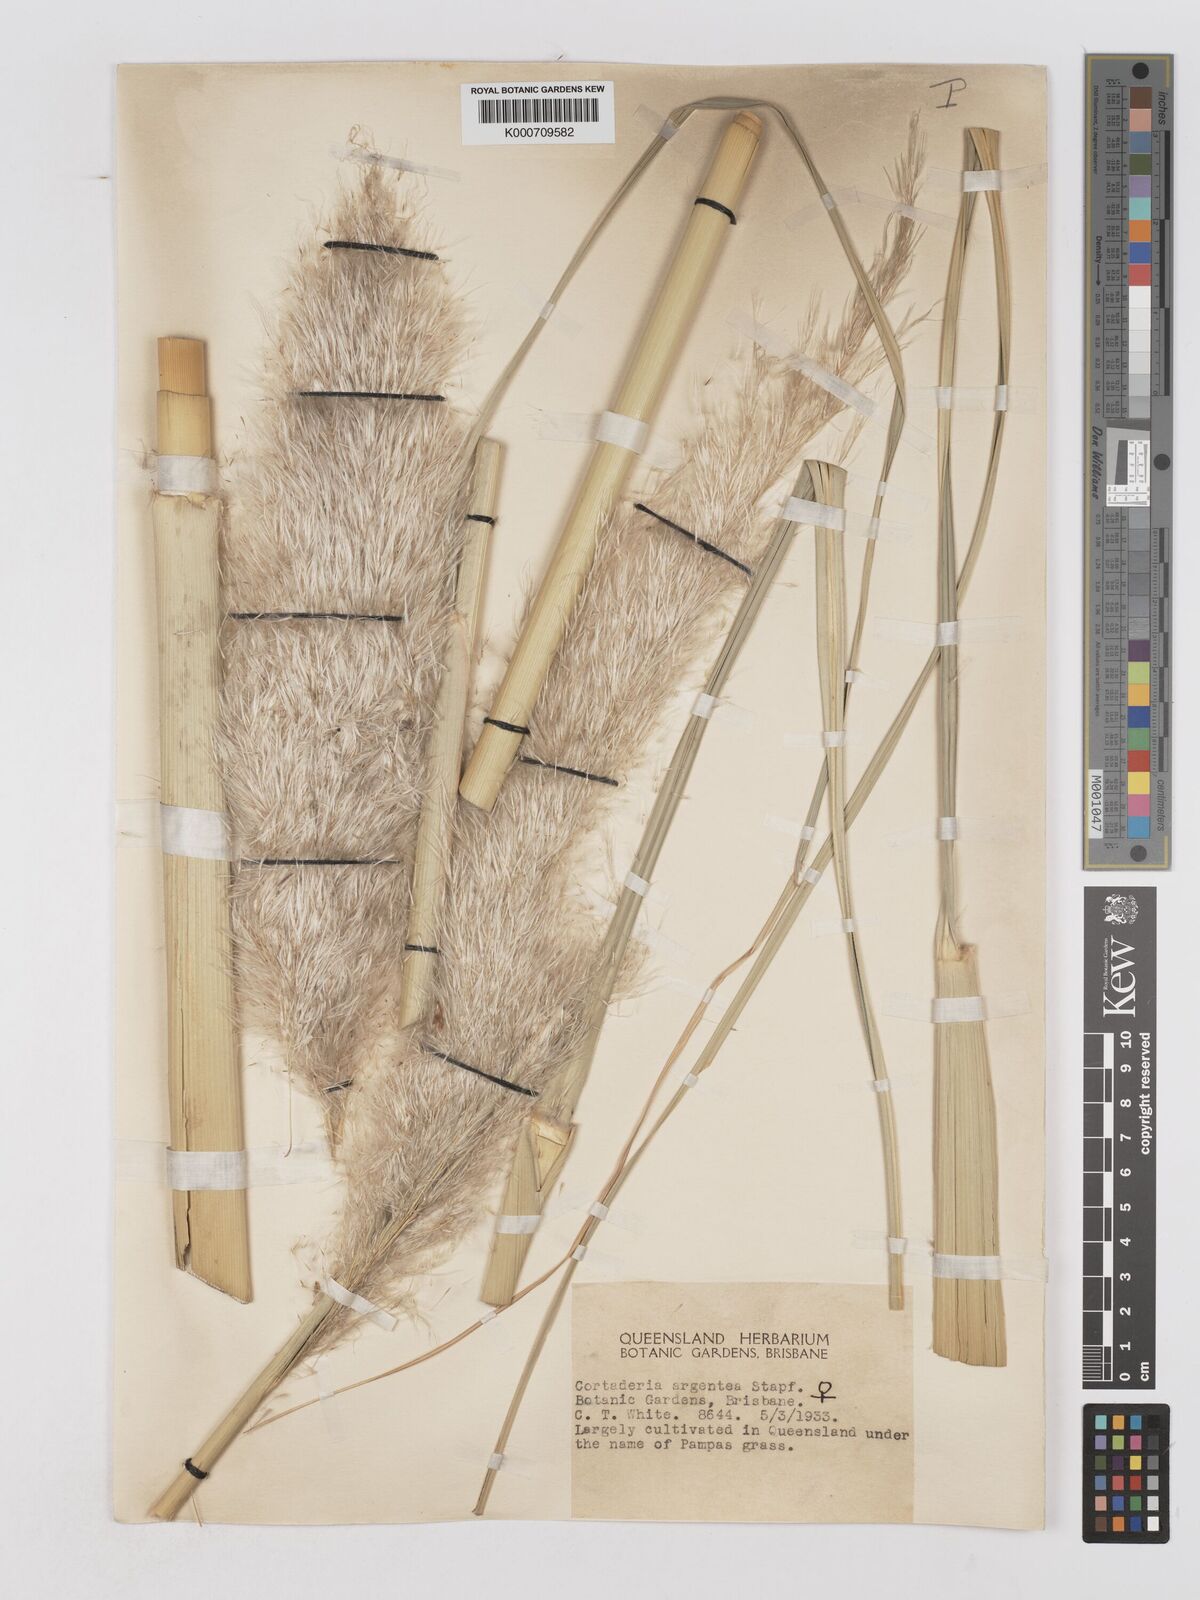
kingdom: Plantae
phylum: Tracheophyta
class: Liliopsida
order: Poales
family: Poaceae
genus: Chimaerochloa
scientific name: Chimaerochloa archboldii
